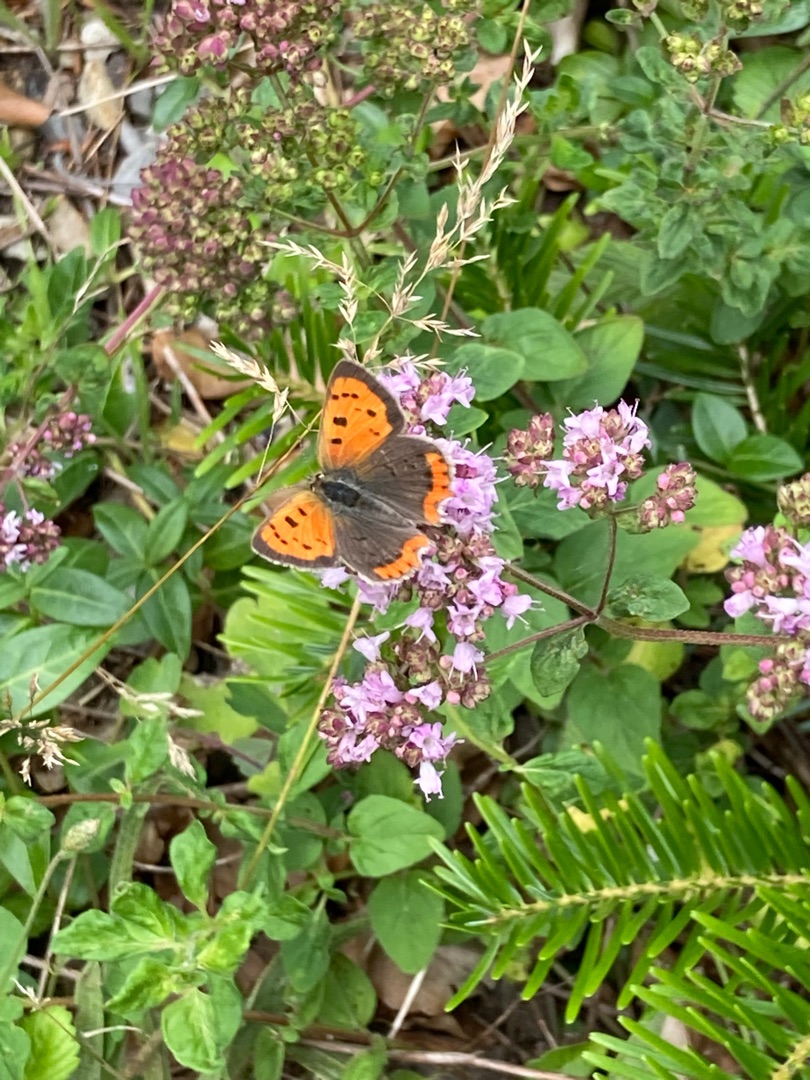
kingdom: Animalia
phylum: Arthropoda
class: Insecta
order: Lepidoptera
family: Lycaenidae
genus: Lycaena
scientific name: Lycaena phlaeas
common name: Lille ildfugl
